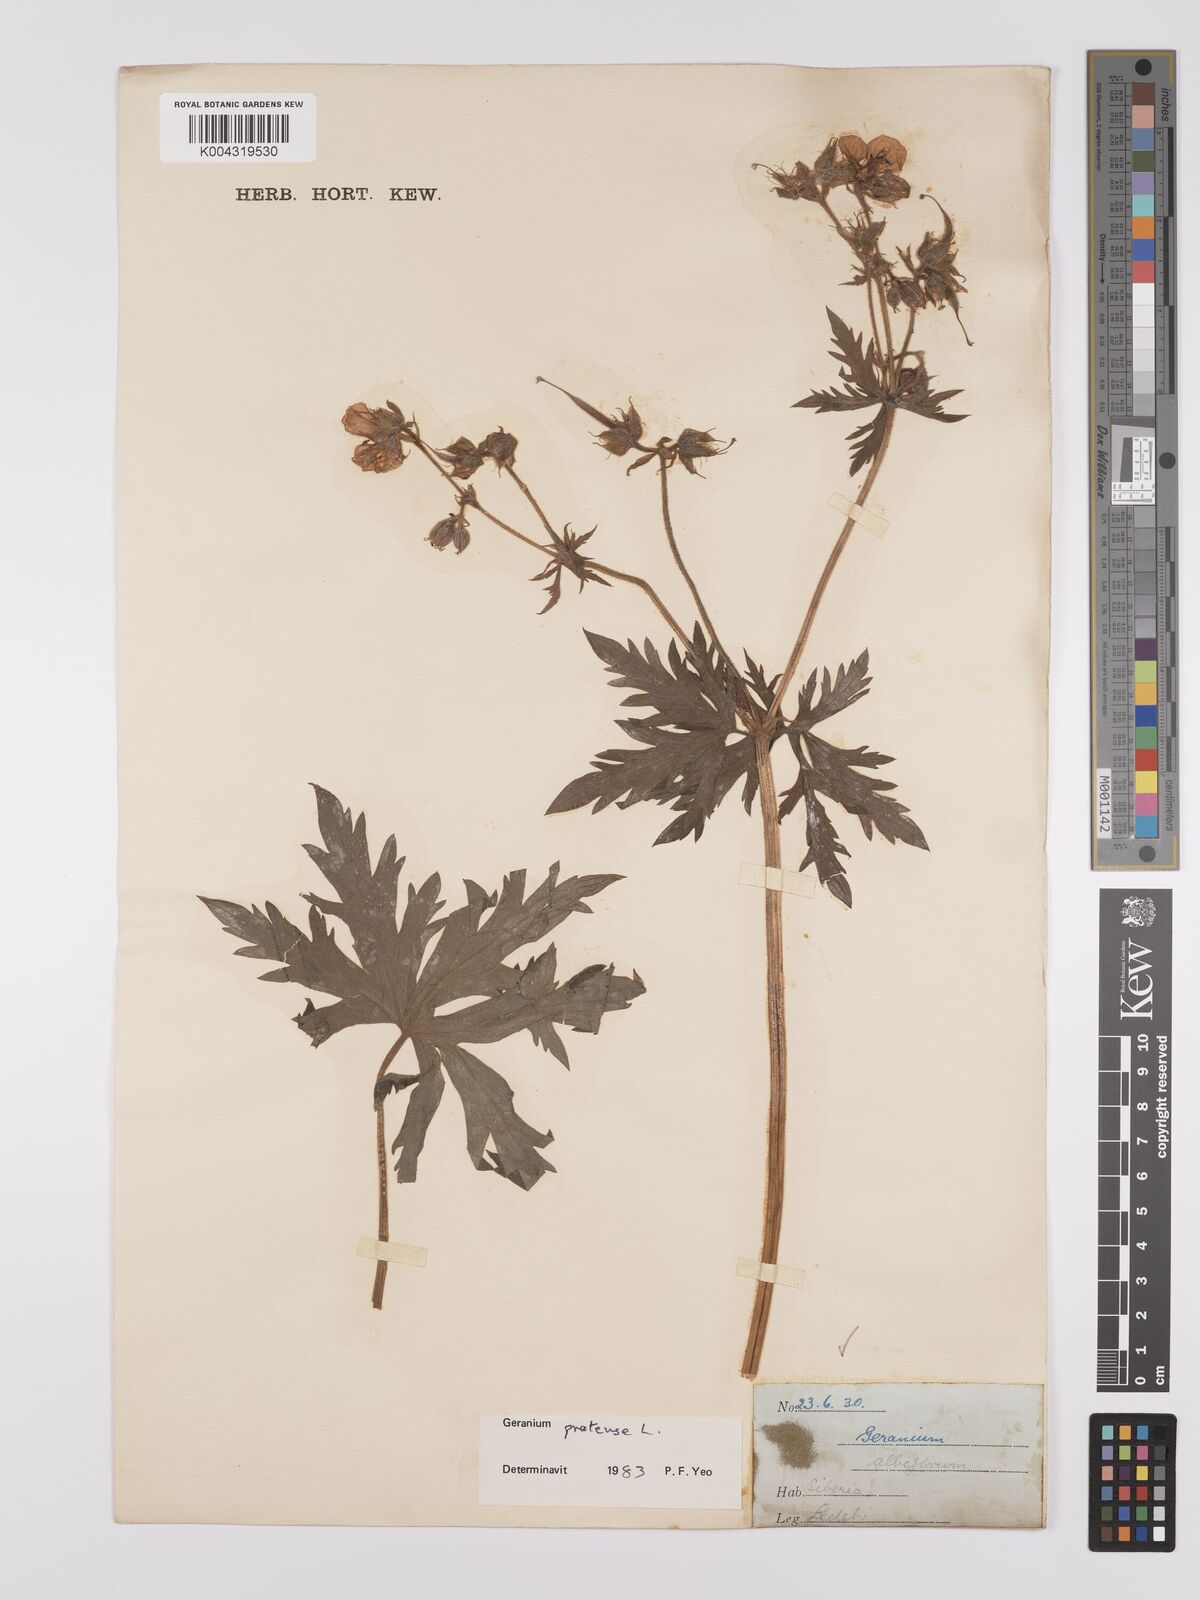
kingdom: Plantae
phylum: Tracheophyta
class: Magnoliopsida
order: Geraniales
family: Geraniaceae
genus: Geranium
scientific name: Geranium pratense
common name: Meadow crane's-bill
